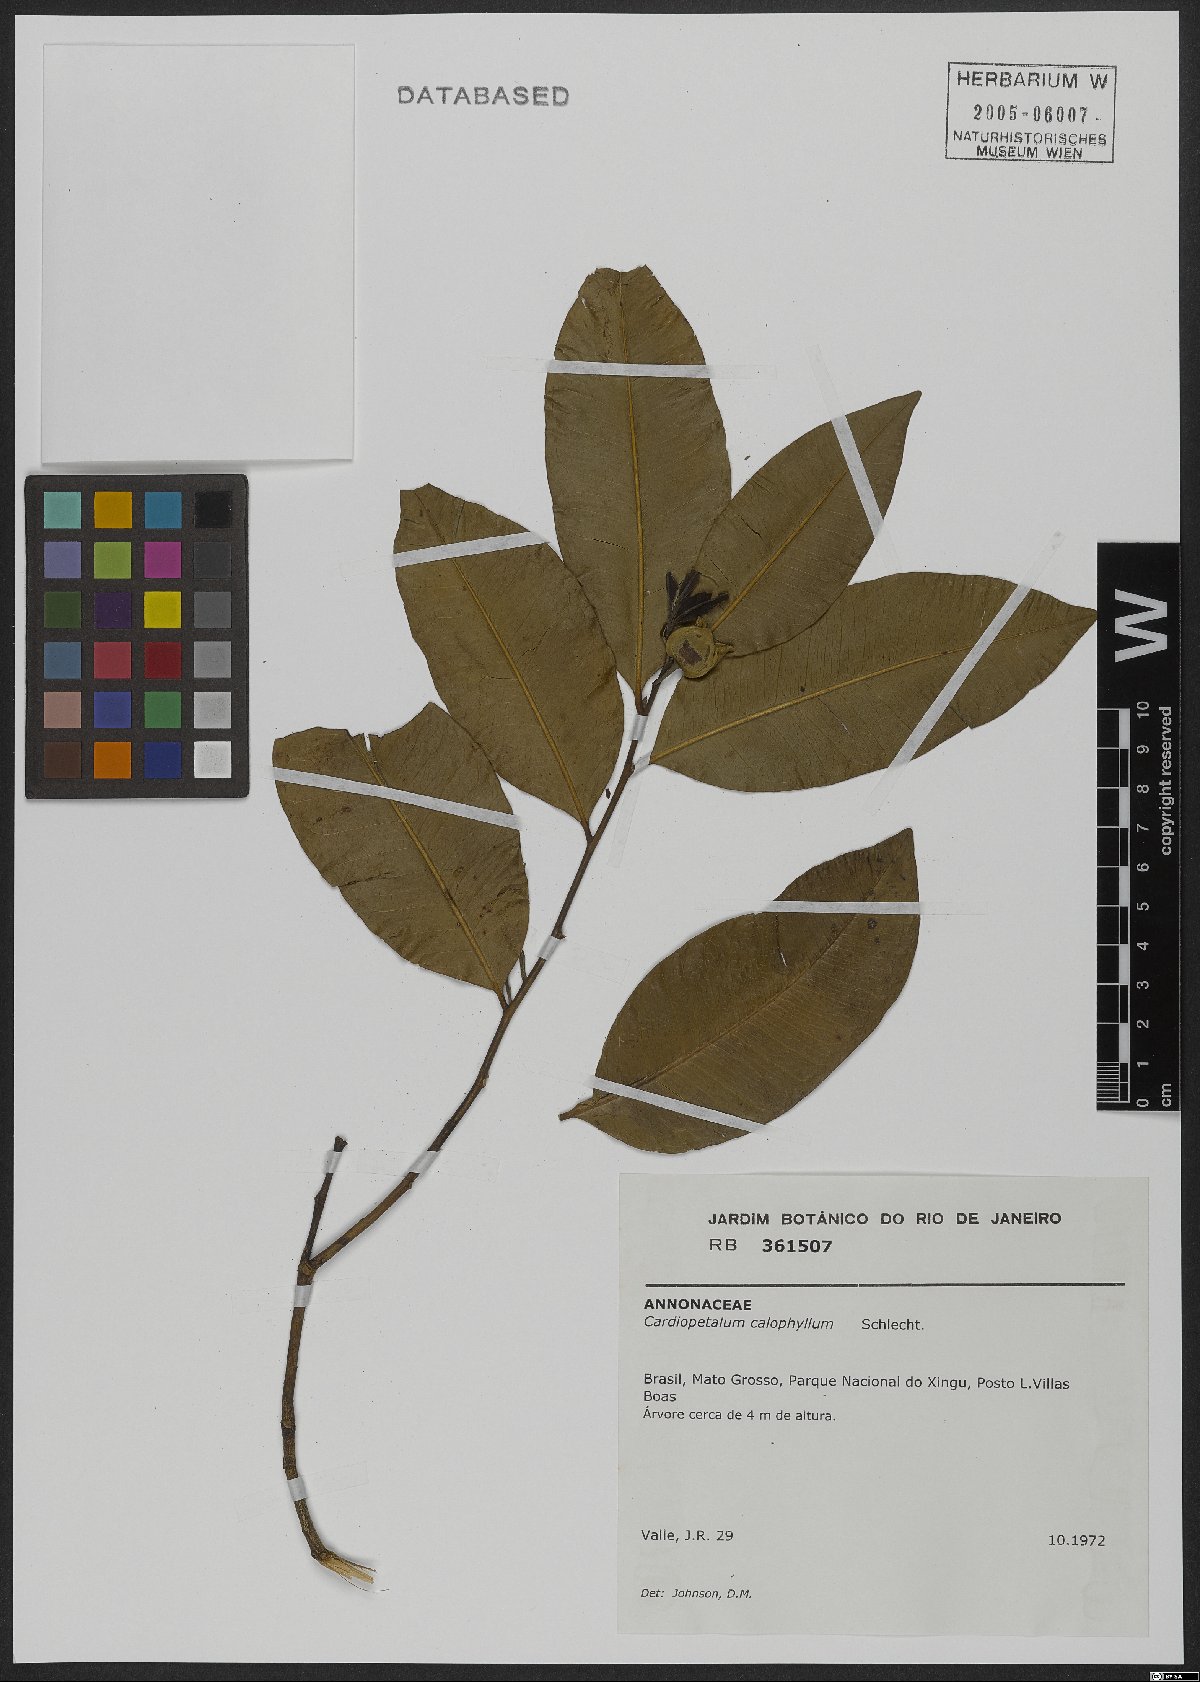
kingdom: Plantae
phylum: Tracheophyta
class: Magnoliopsida
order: Magnoliales
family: Annonaceae
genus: Cardiopetalum
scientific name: Cardiopetalum calophyllum
